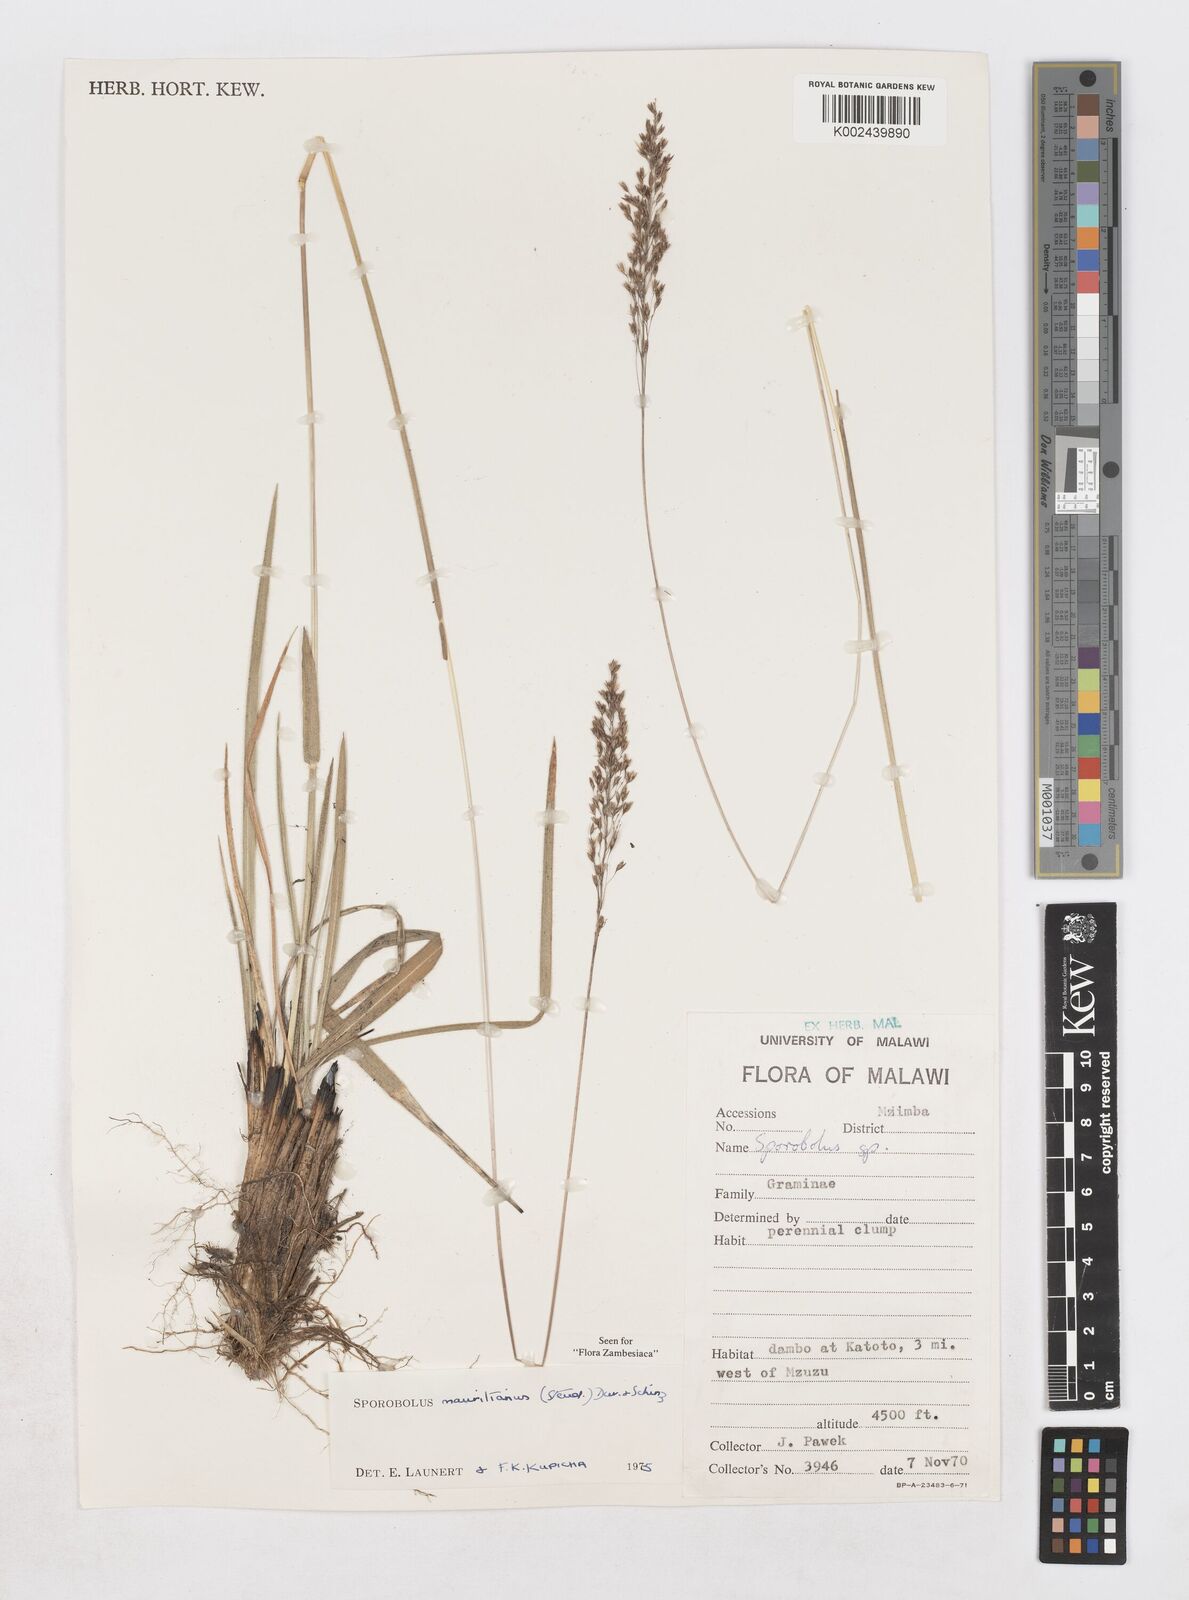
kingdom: Plantae
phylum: Tracheophyta
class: Liliopsida
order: Poales
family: Poaceae
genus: Sporobolus
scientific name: Sporobolus subulatus
